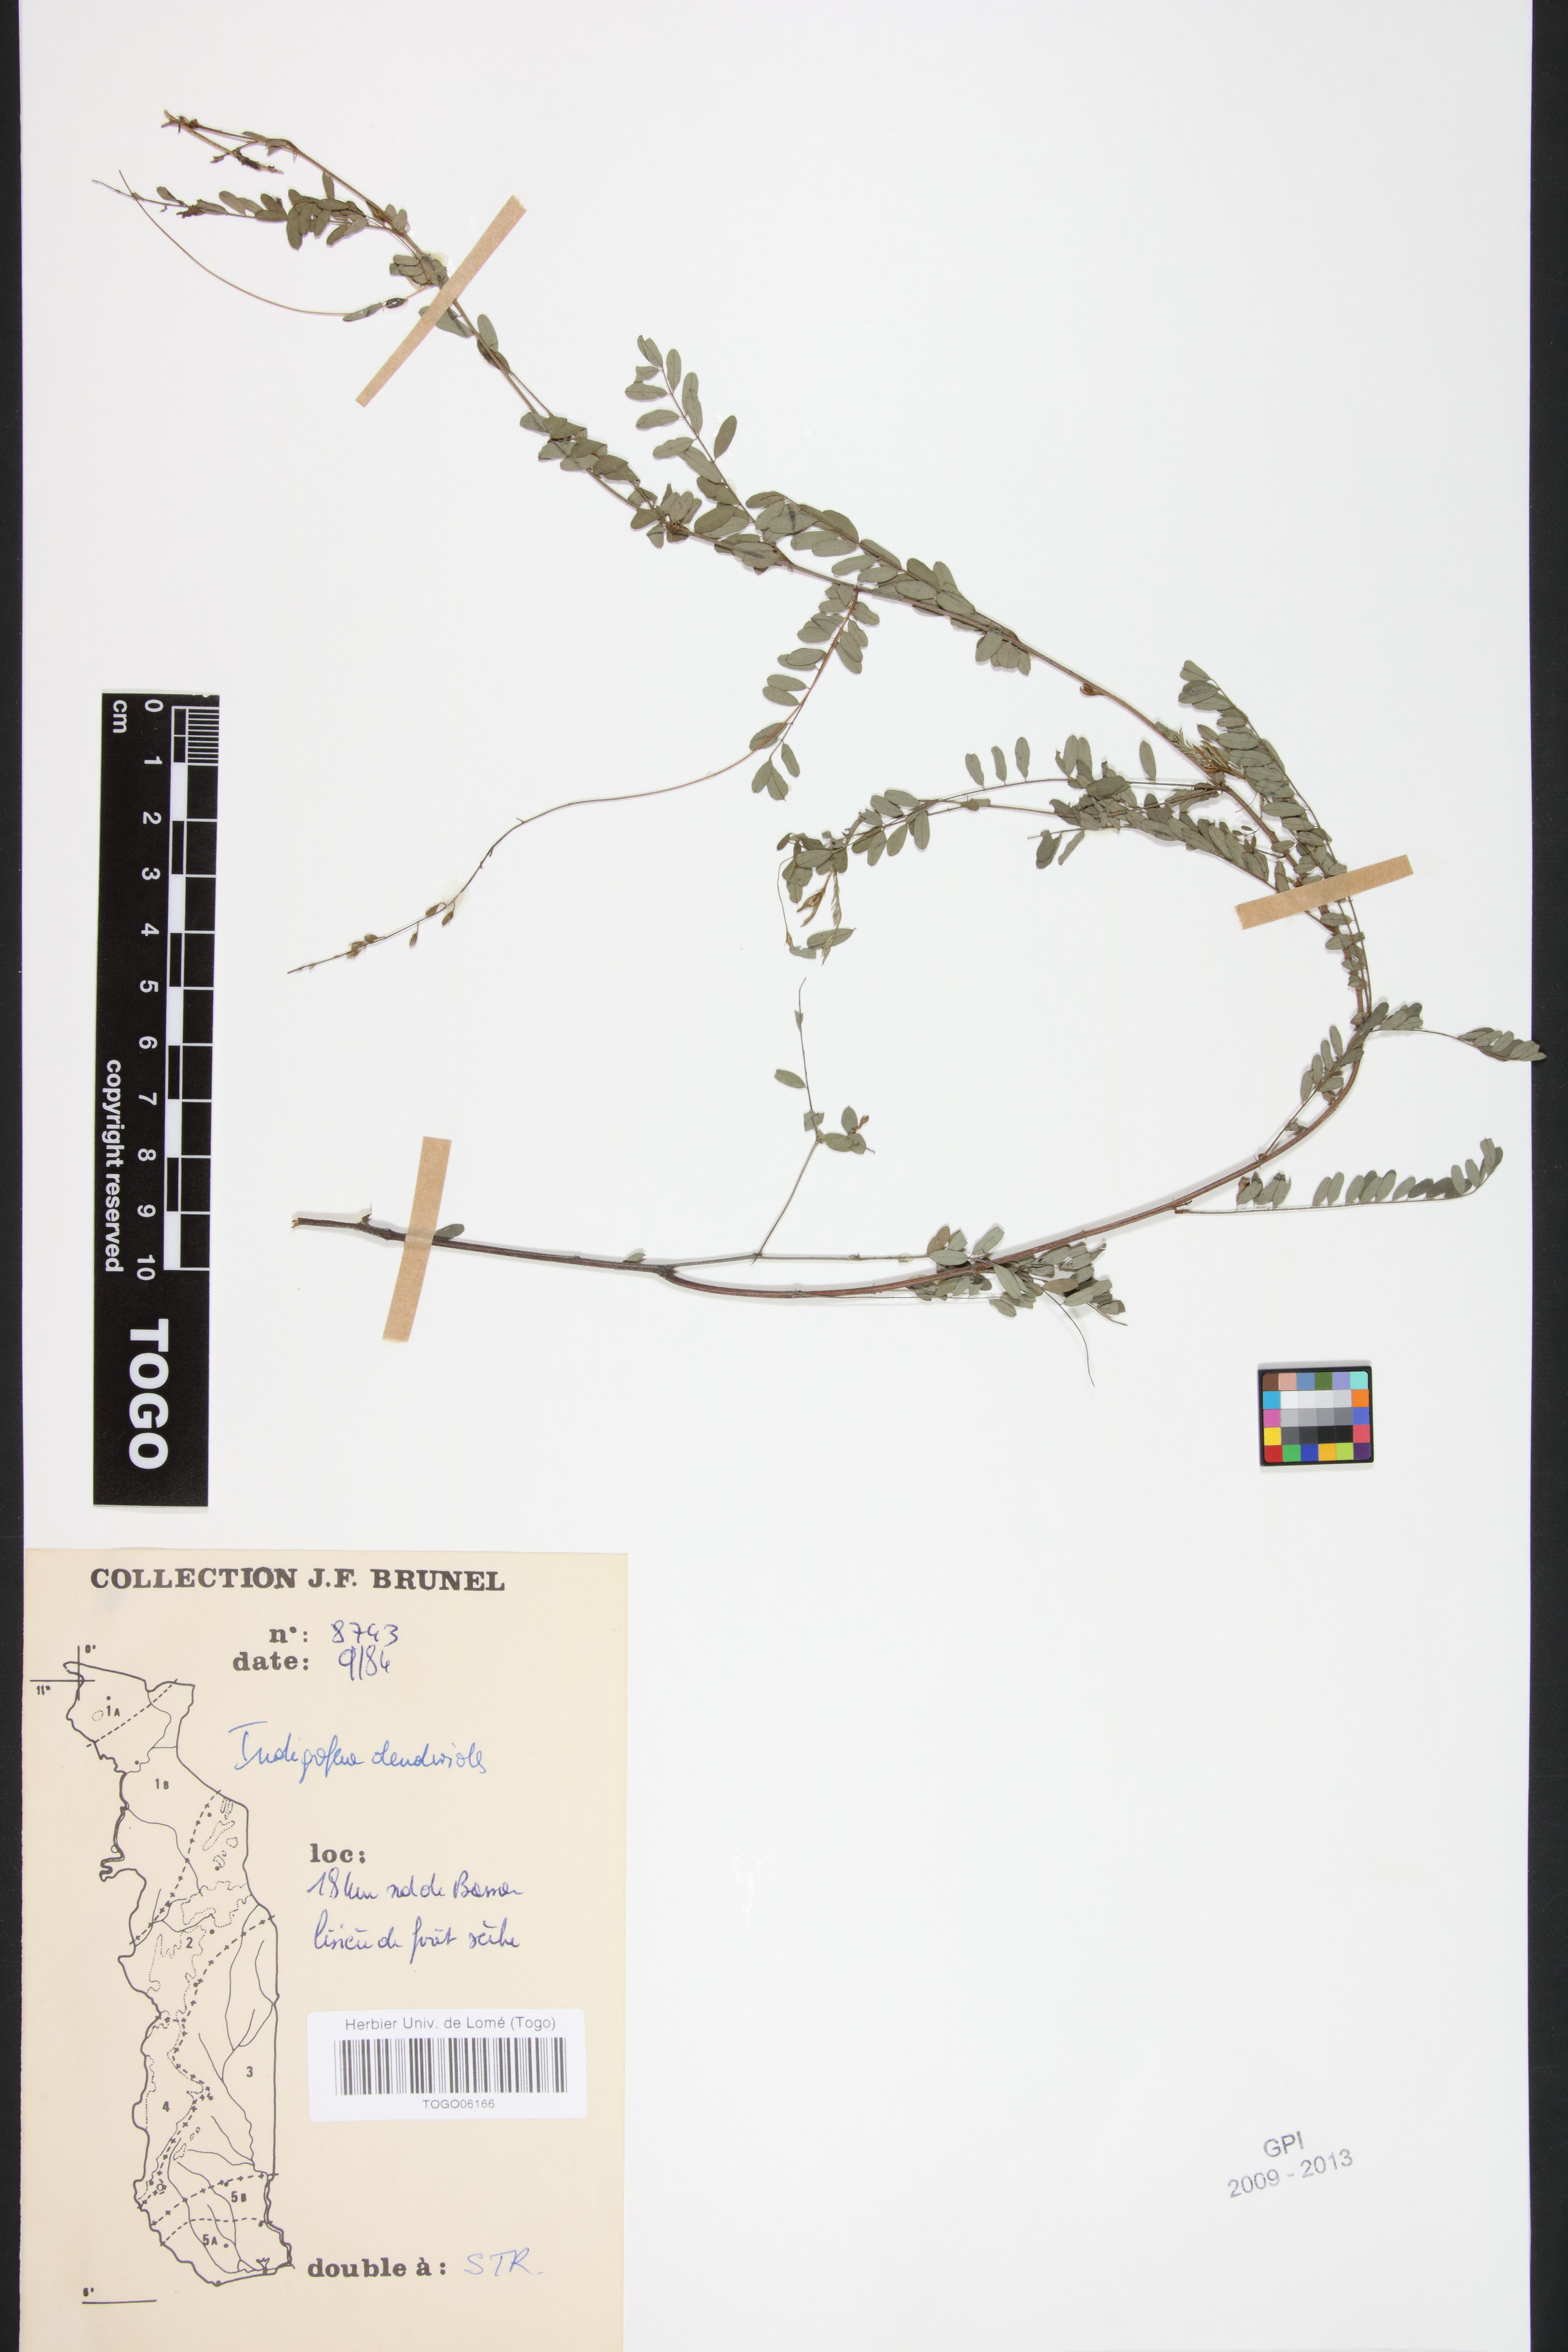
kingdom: Plantae
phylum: Tracheophyta
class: Magnoliopsida
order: Fabales
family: Fabaceae
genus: Indigofera
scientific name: Indigofera dendroides
